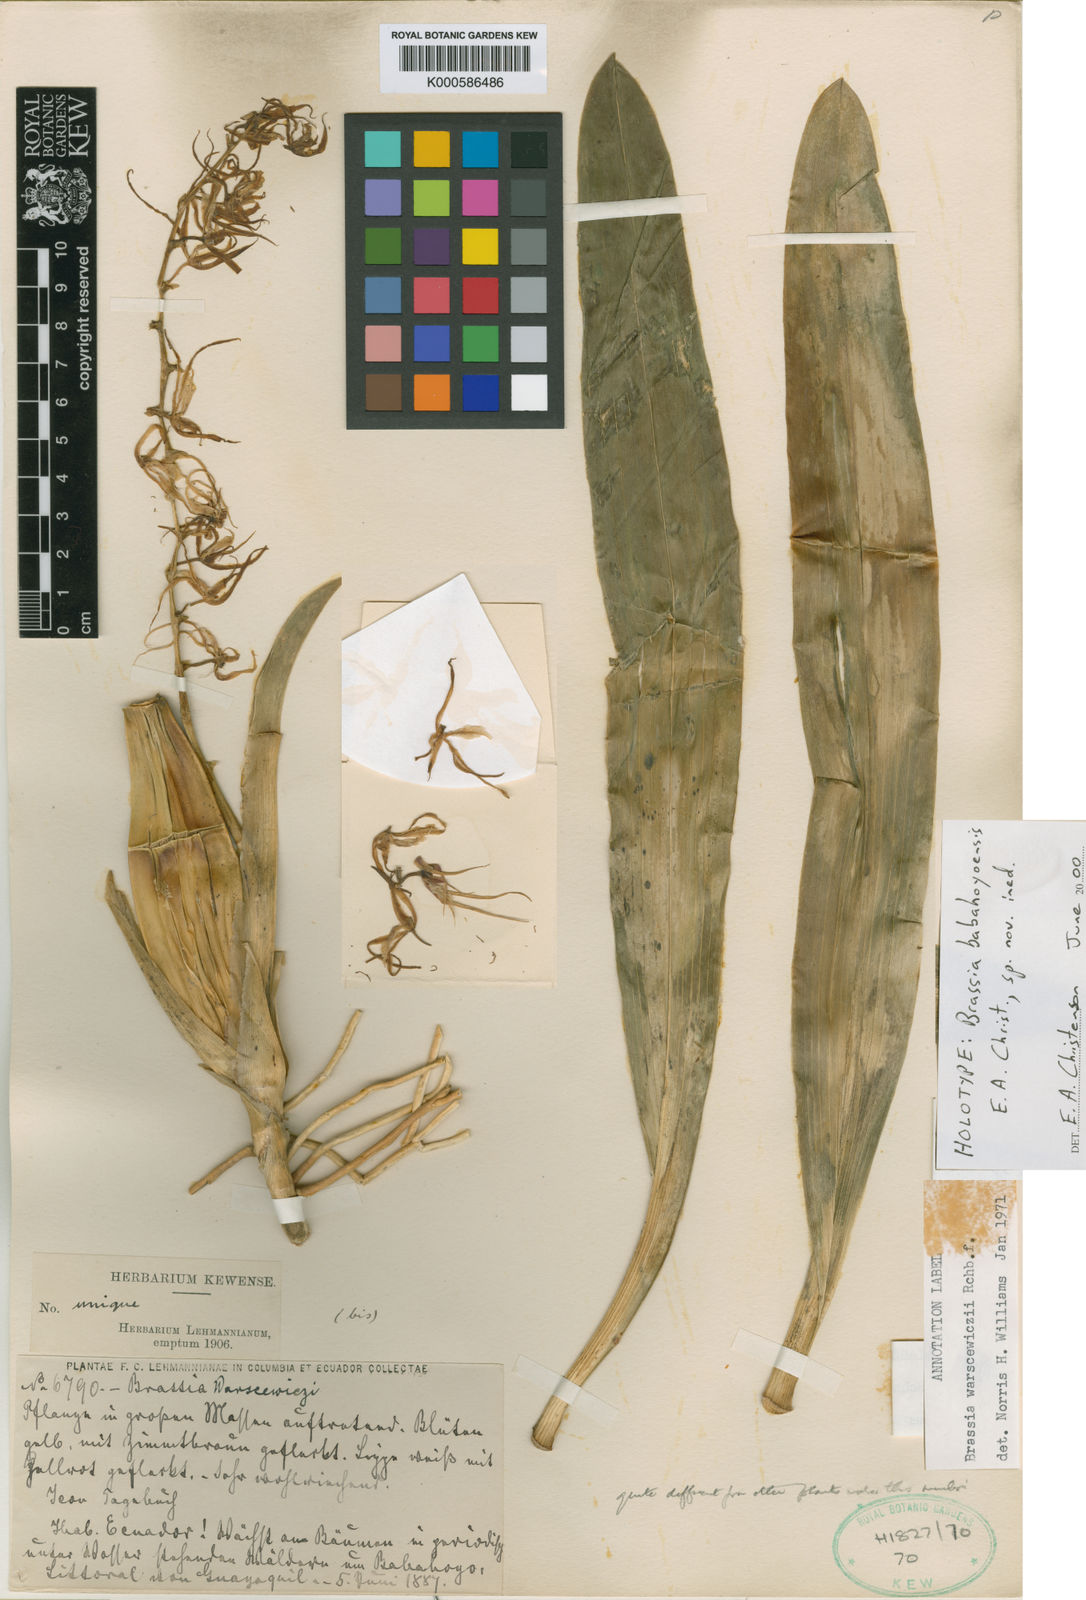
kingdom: Plantae
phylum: Tracheophyta
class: Liliopsida
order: Asparagales
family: Orchidaceae
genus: Brassia
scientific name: Brassia
